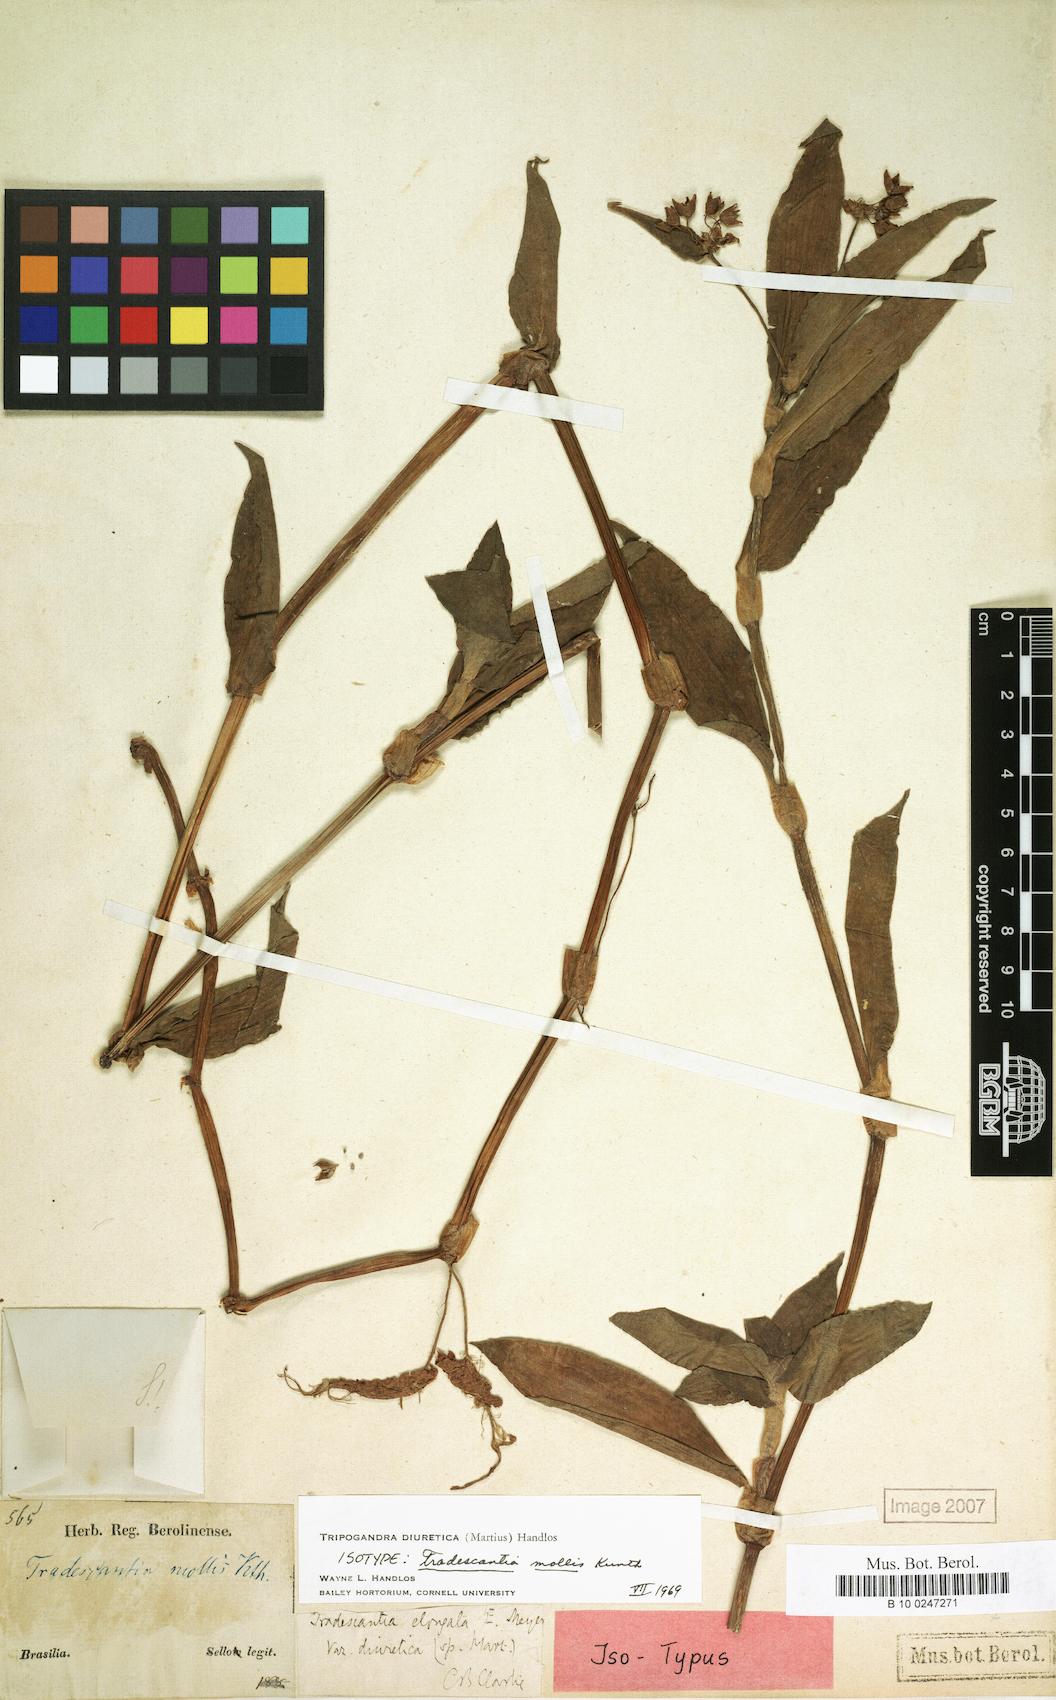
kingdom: Plantae
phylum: Tracheophyta
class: Liliopsida
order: Commelinales
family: Commelinaceae
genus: Callisia
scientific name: Callisia diuretica
